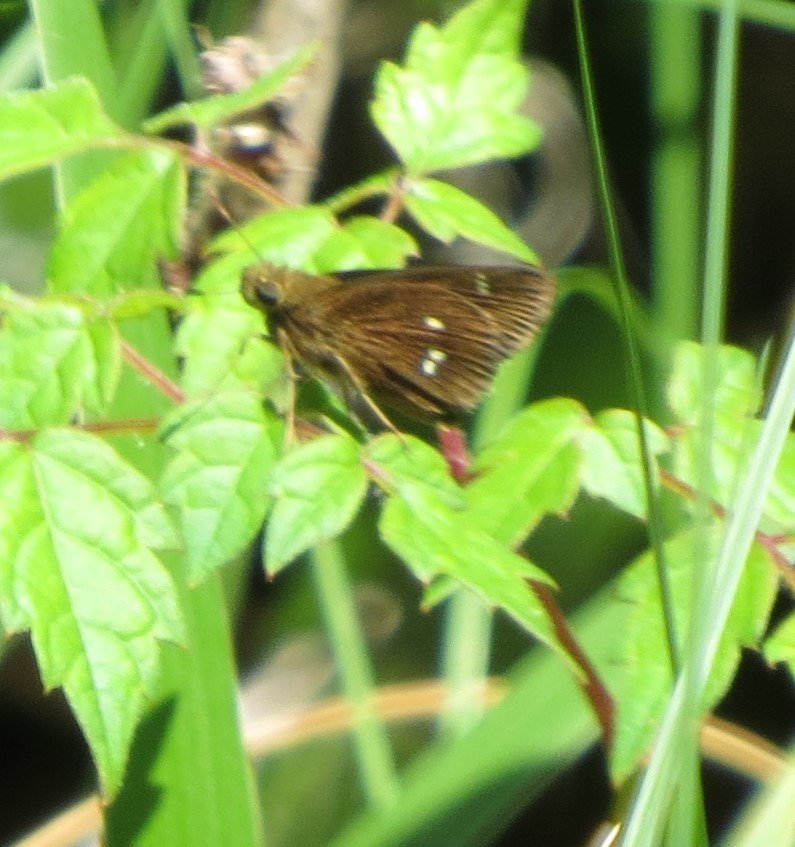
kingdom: Animalia
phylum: Arthropoda
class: Insecta
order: Lepidoptera
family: Hesperiidae
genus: Oligoria
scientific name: Oligoria maculata
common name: Twin-spot Skipper
